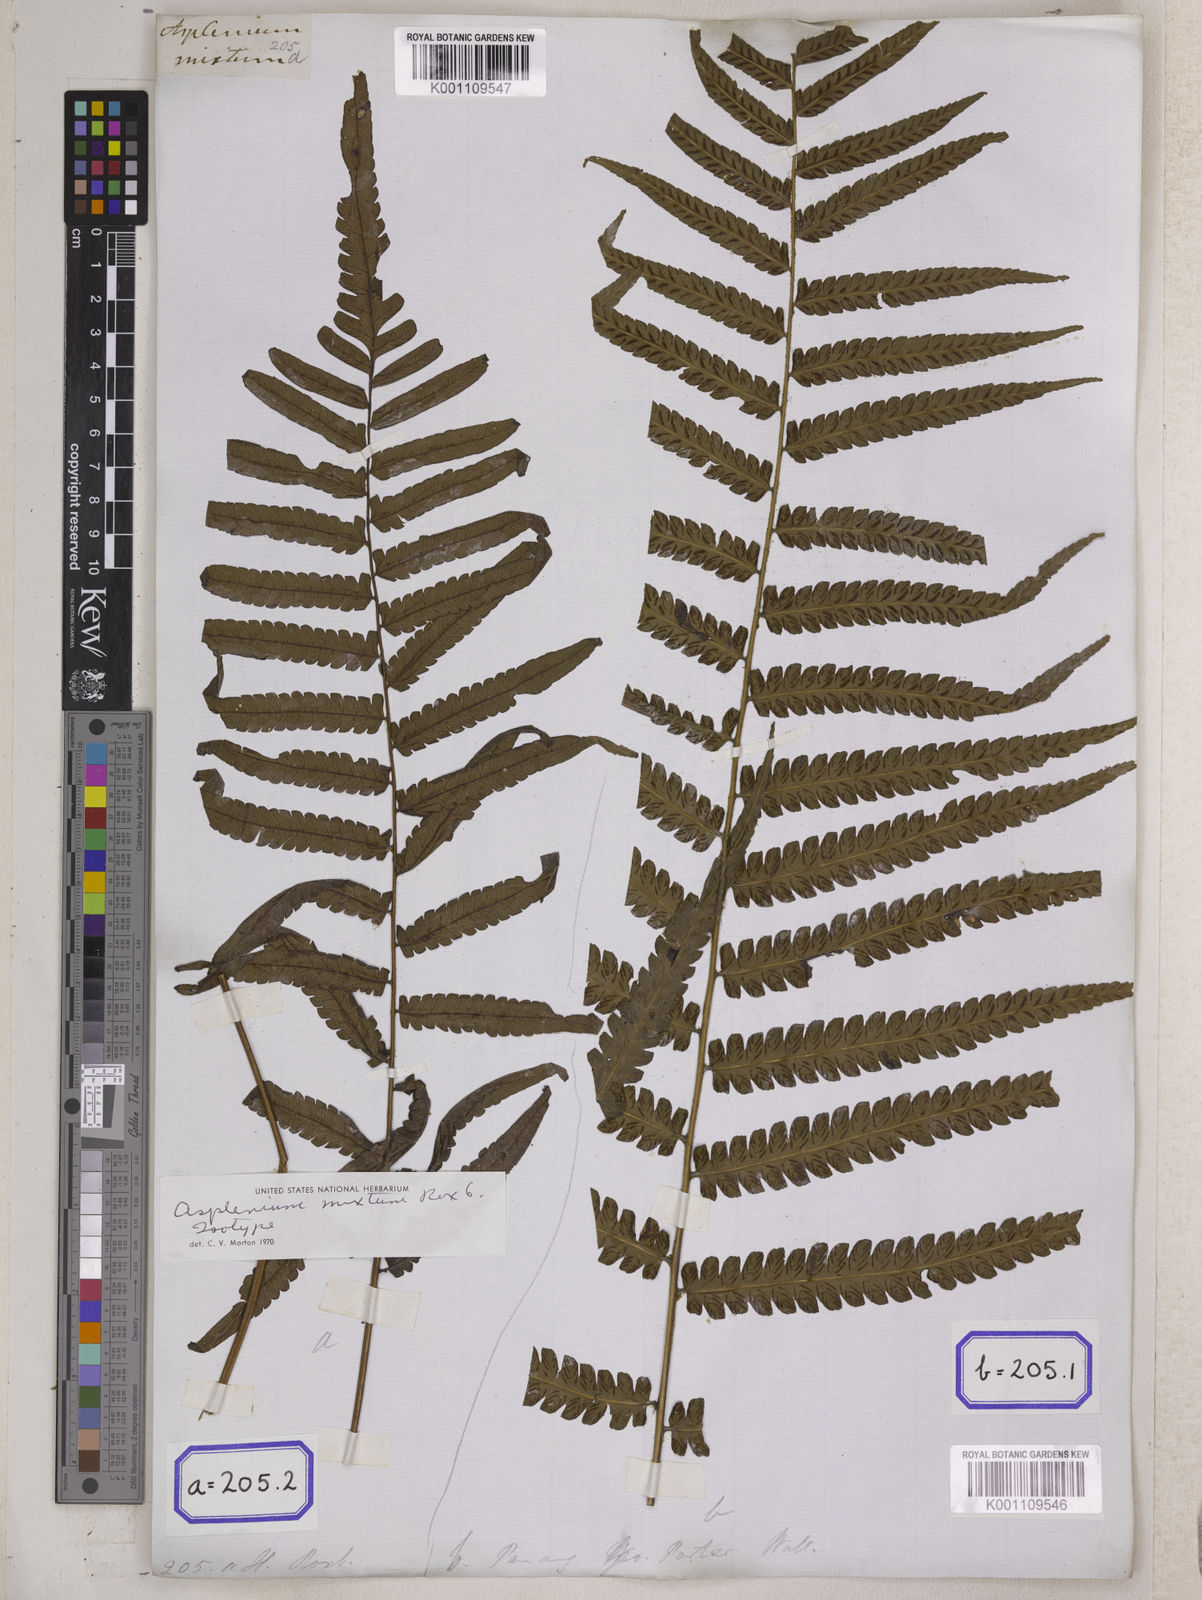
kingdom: Plantae
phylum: Tracheophyta
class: Polypodiopsida
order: Polypodiales
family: Athyriaceae
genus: Diplazium
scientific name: Diplazium schkuhrii
